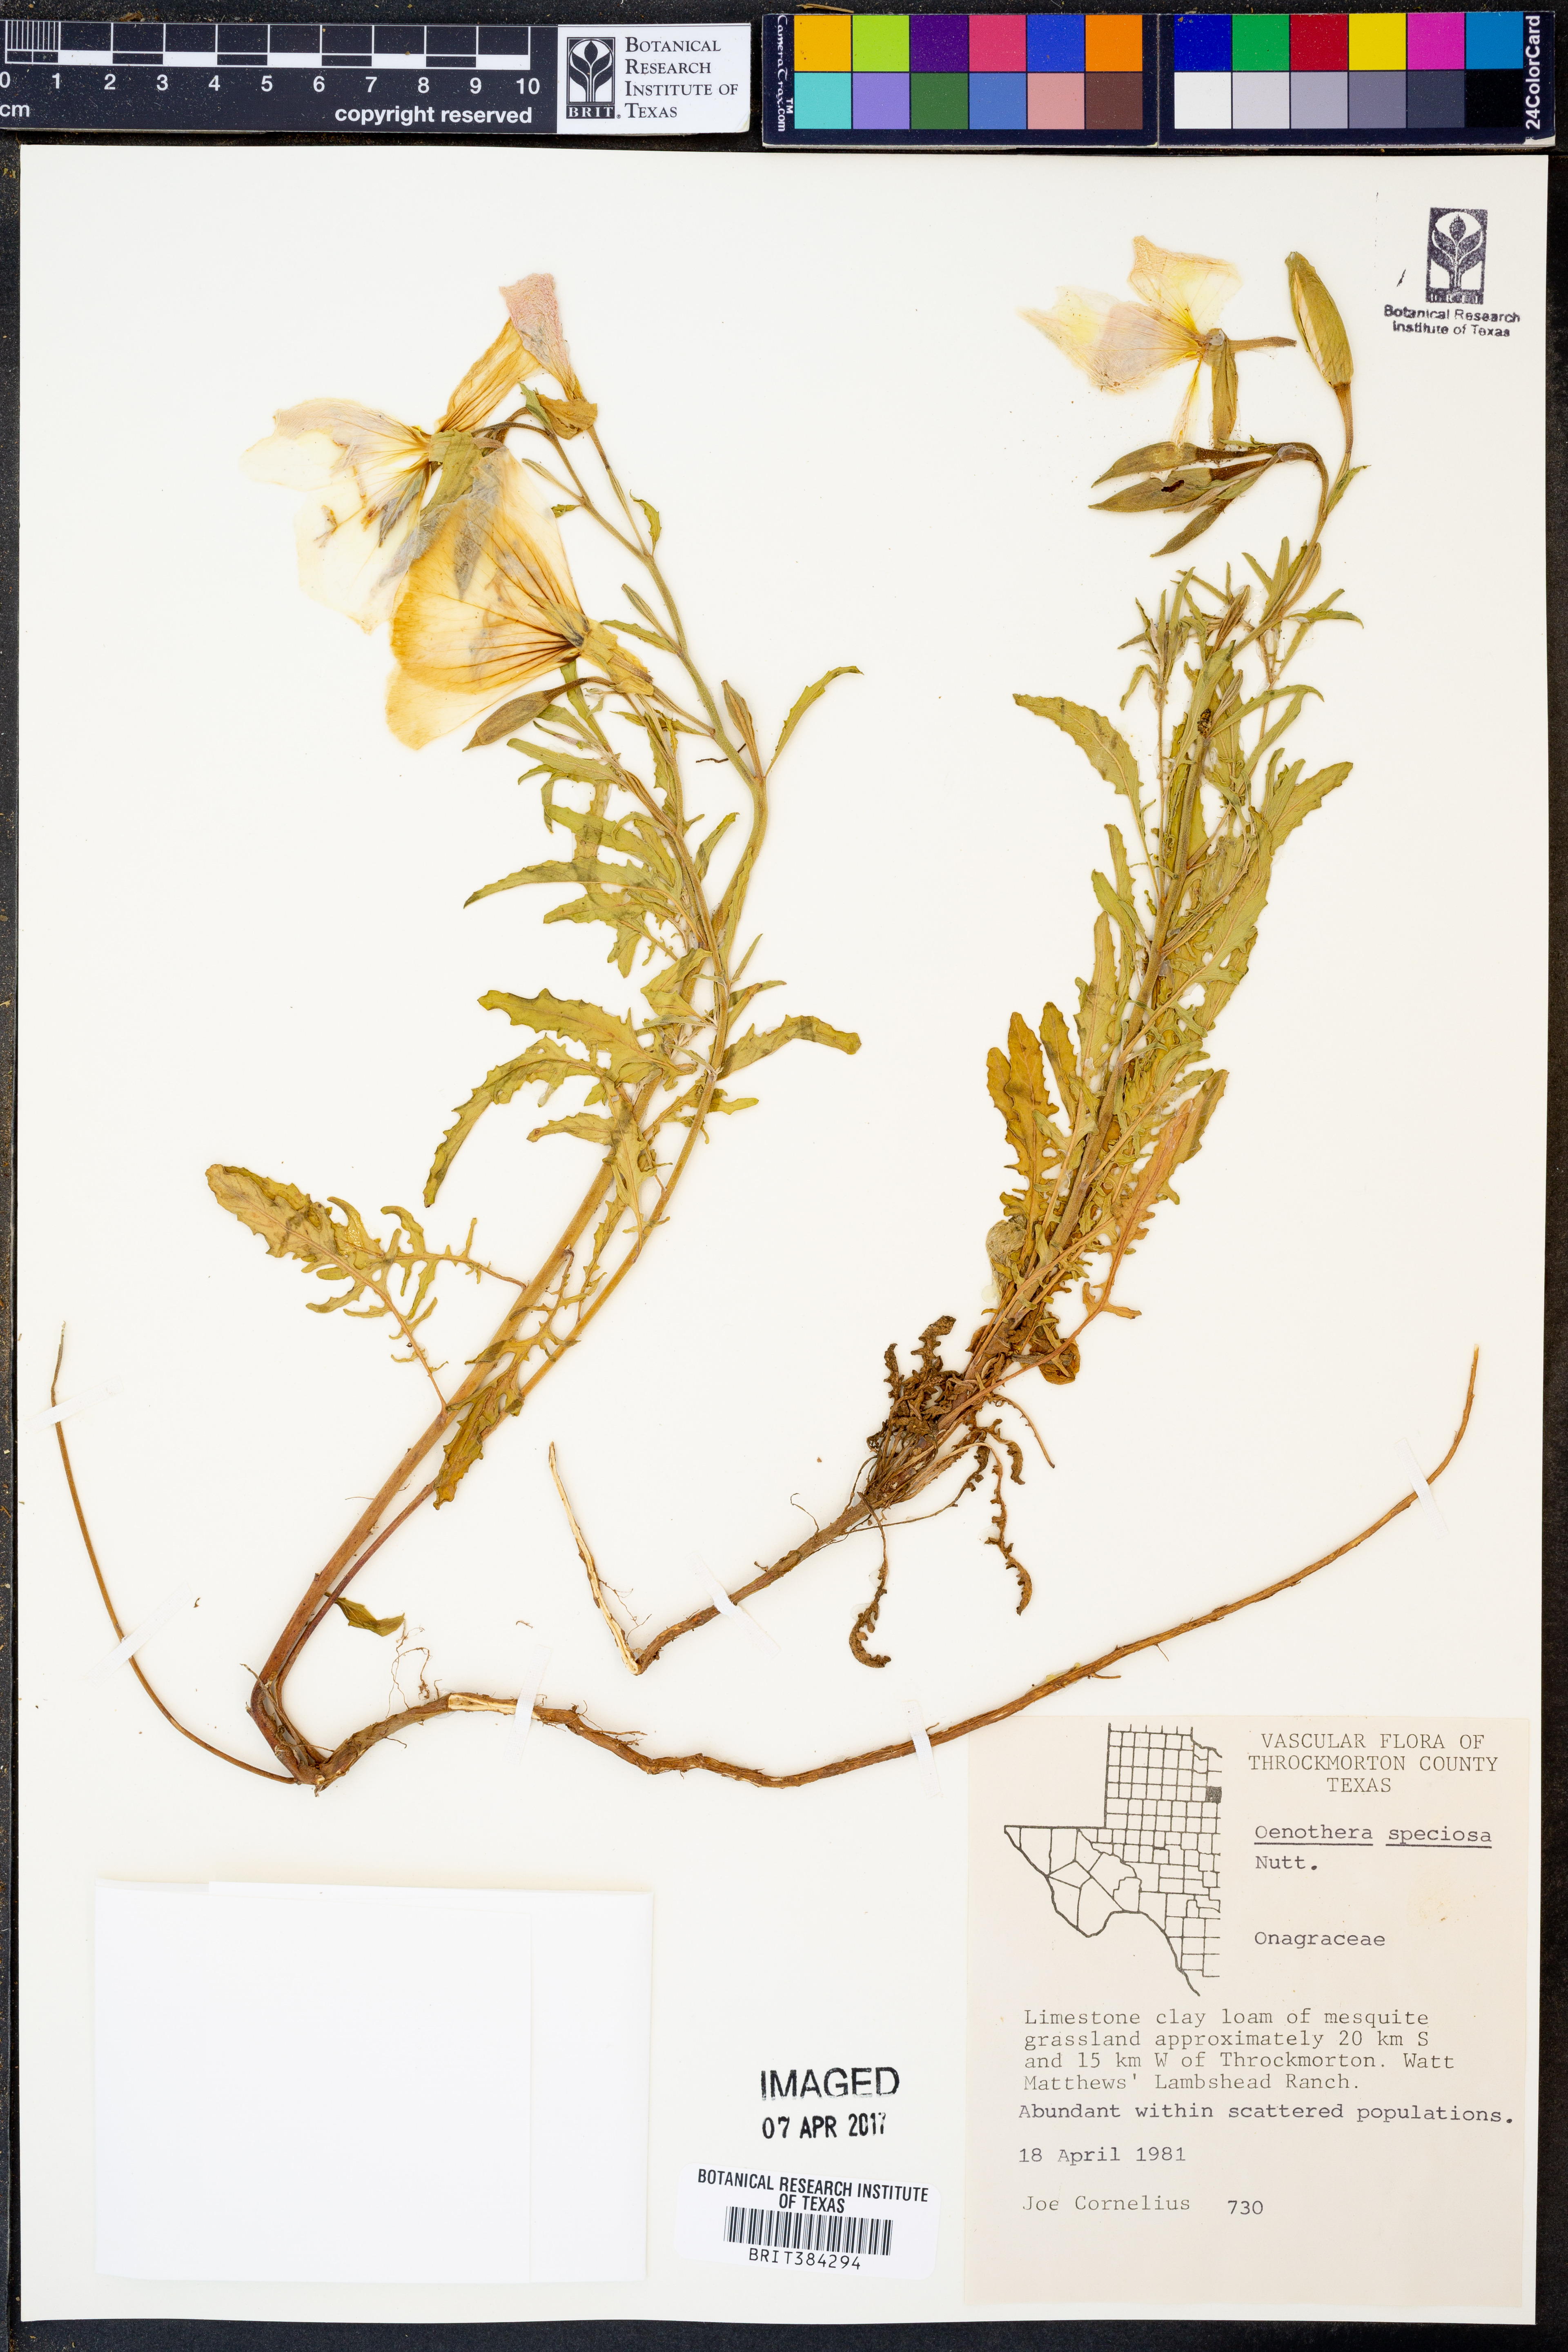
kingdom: Plantae
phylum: Tracheophyta
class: Magnoliopsida
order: Myrtales
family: Onagraceae
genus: Oenothera
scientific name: Oenothera speciosa
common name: White evening-primrose
